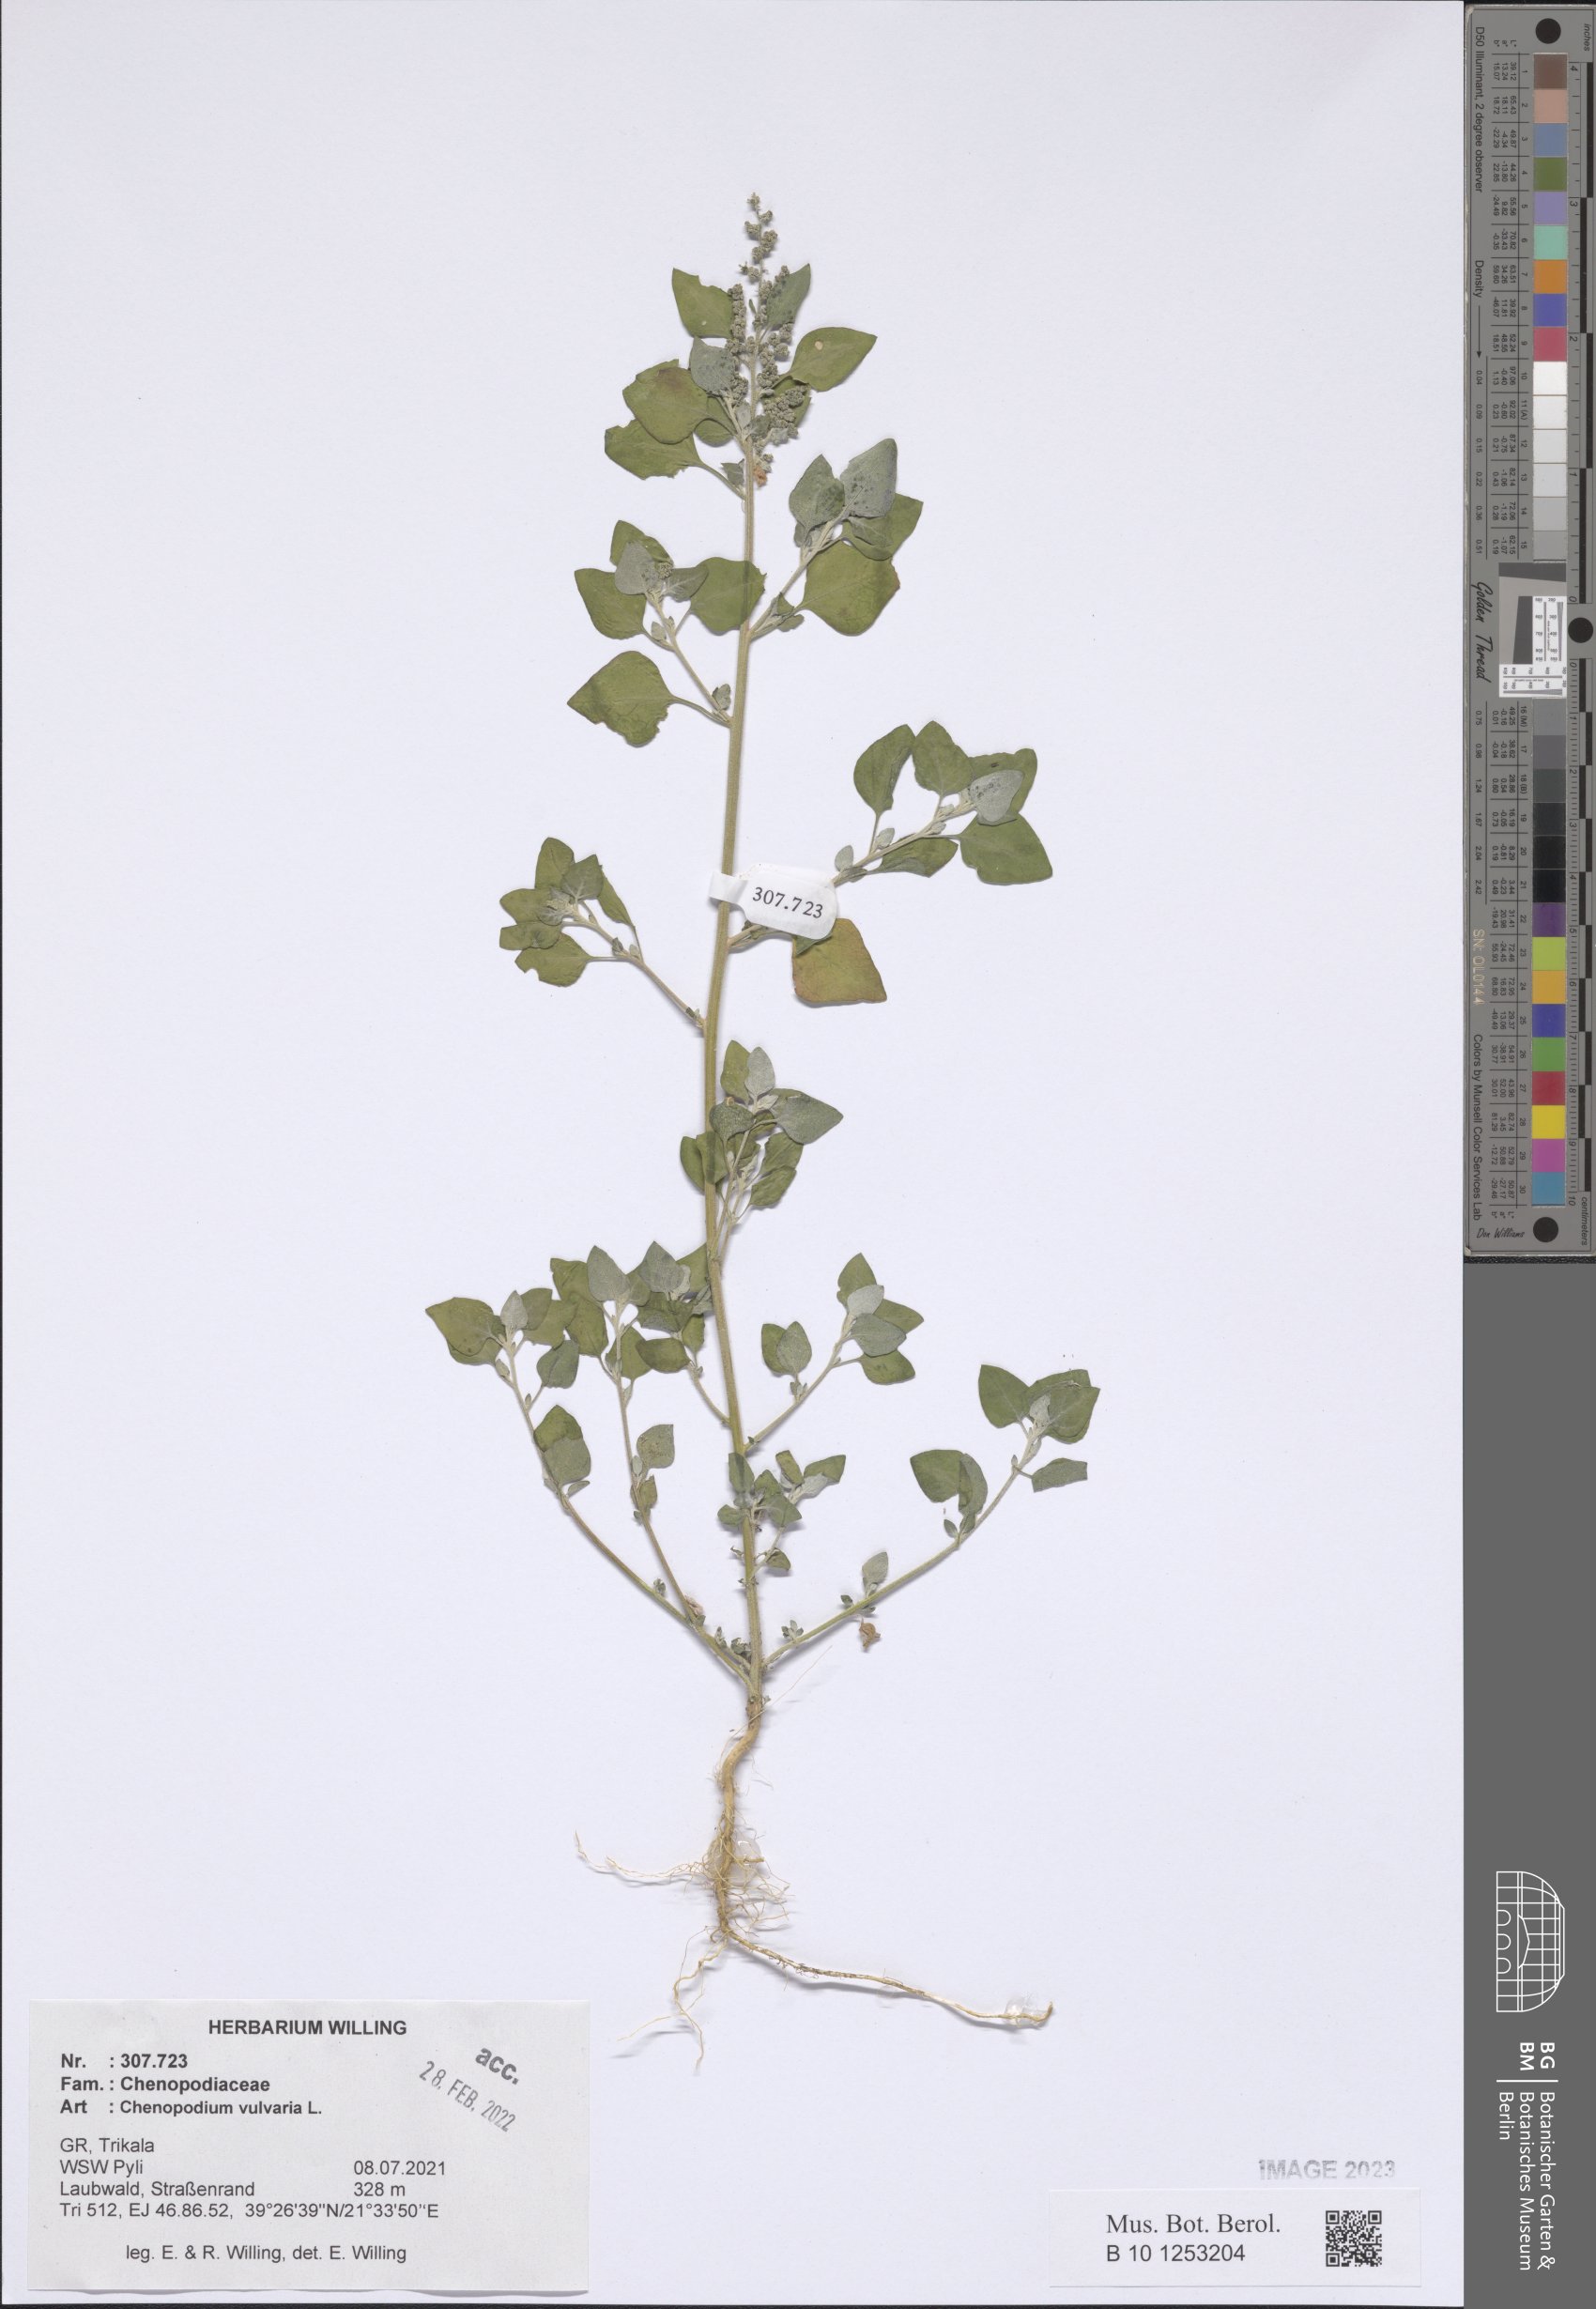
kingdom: Plantae
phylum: Tracheophyta
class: Magnoliopsida
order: Caryophyllales
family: Amaranthaceae
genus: Chenopodium
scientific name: Chenopodium vulvaria
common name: Stinking goosefoot
